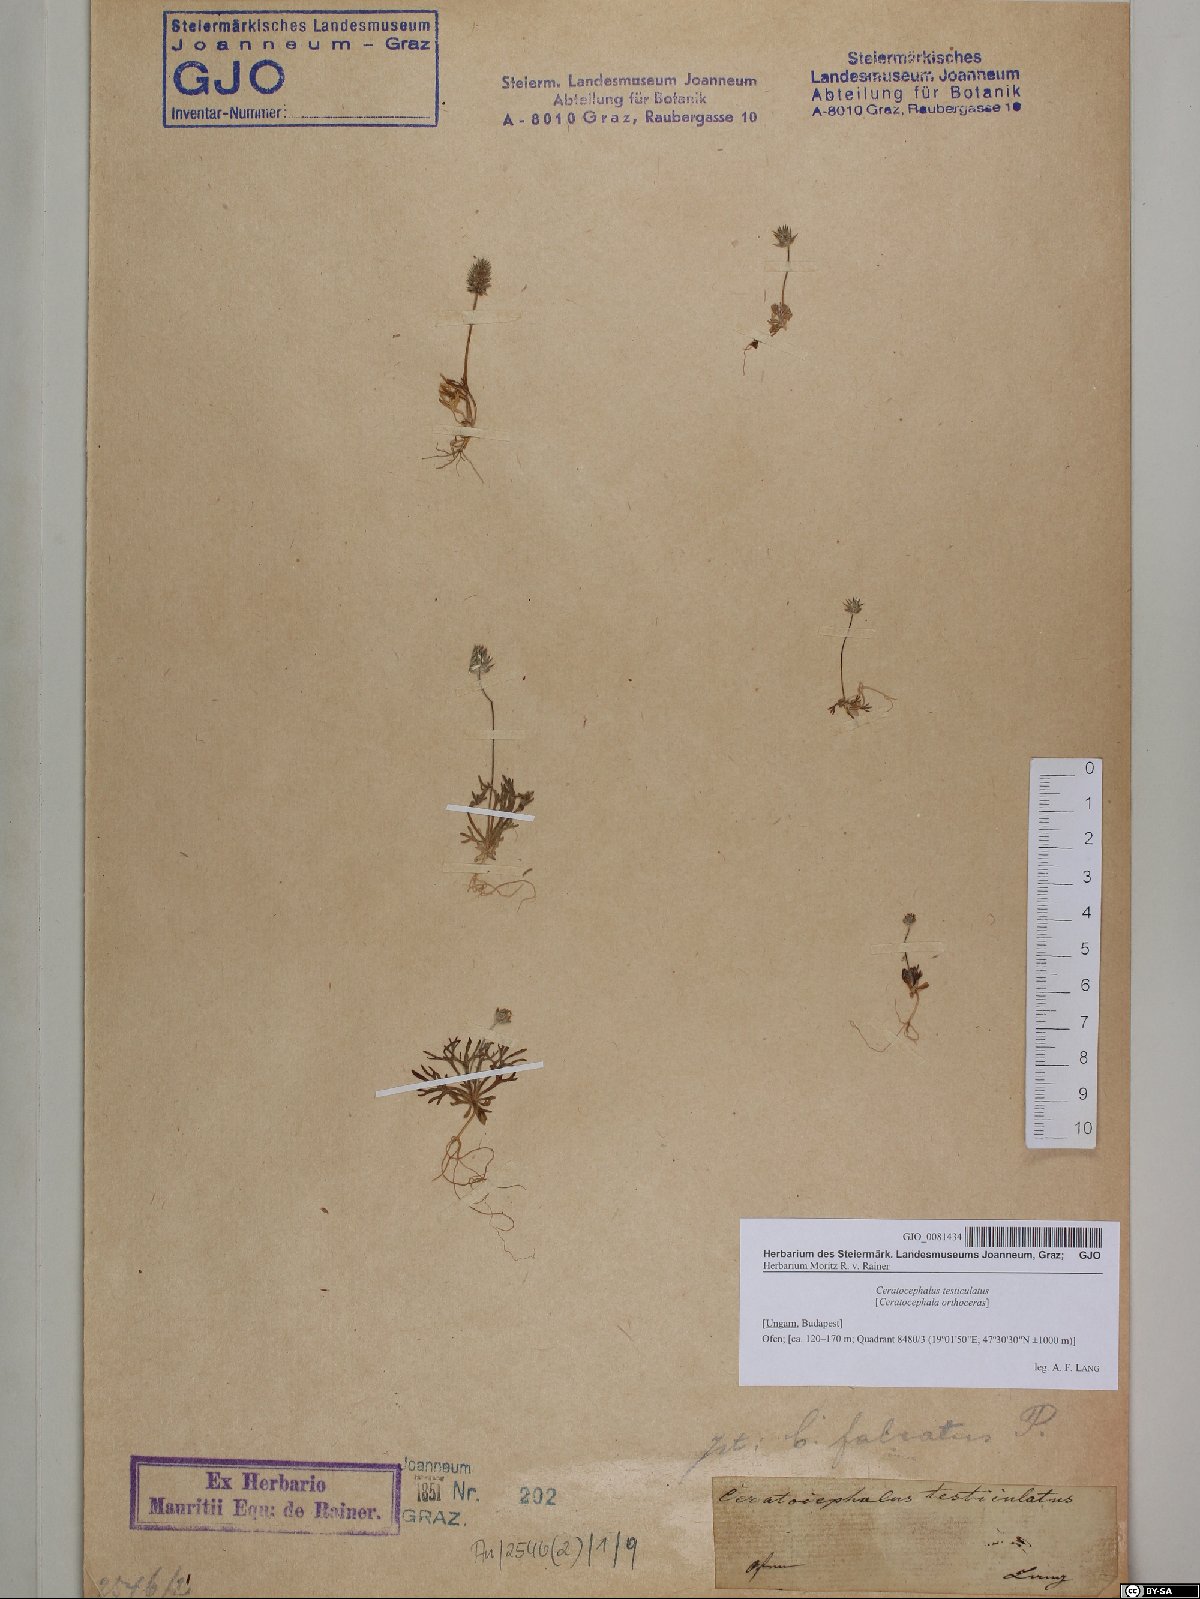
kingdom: Plantae
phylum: Tracheophyta
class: Magnoliopsida
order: Ranunculales
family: Ranunculaceae
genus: Ceratocephala
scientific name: Ceratocephala orthoceras
